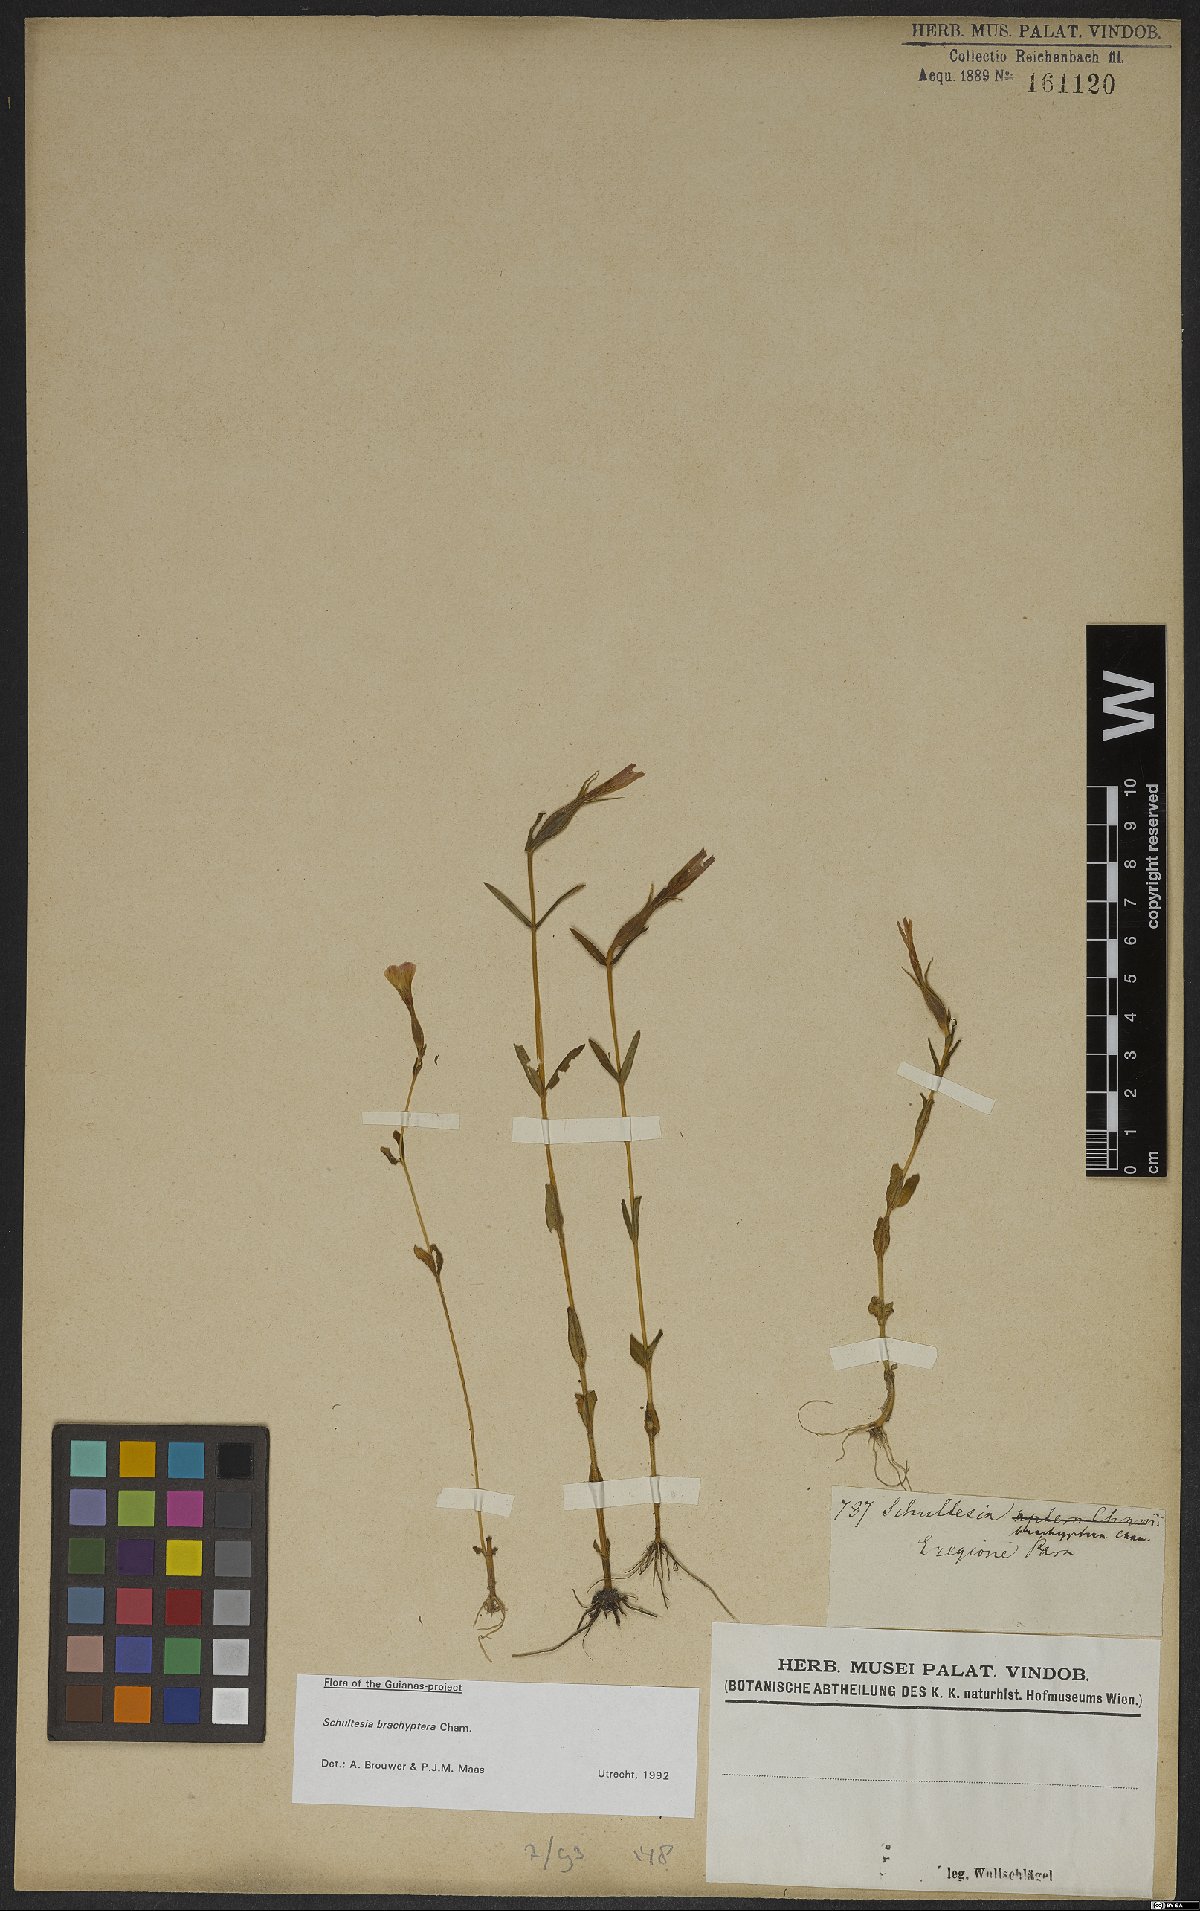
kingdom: Plantae
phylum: Tracheophyta
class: Magnoliopsida
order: Gentianales
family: Gentianaceae
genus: Schultesia
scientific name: Schultesia brachyptera
